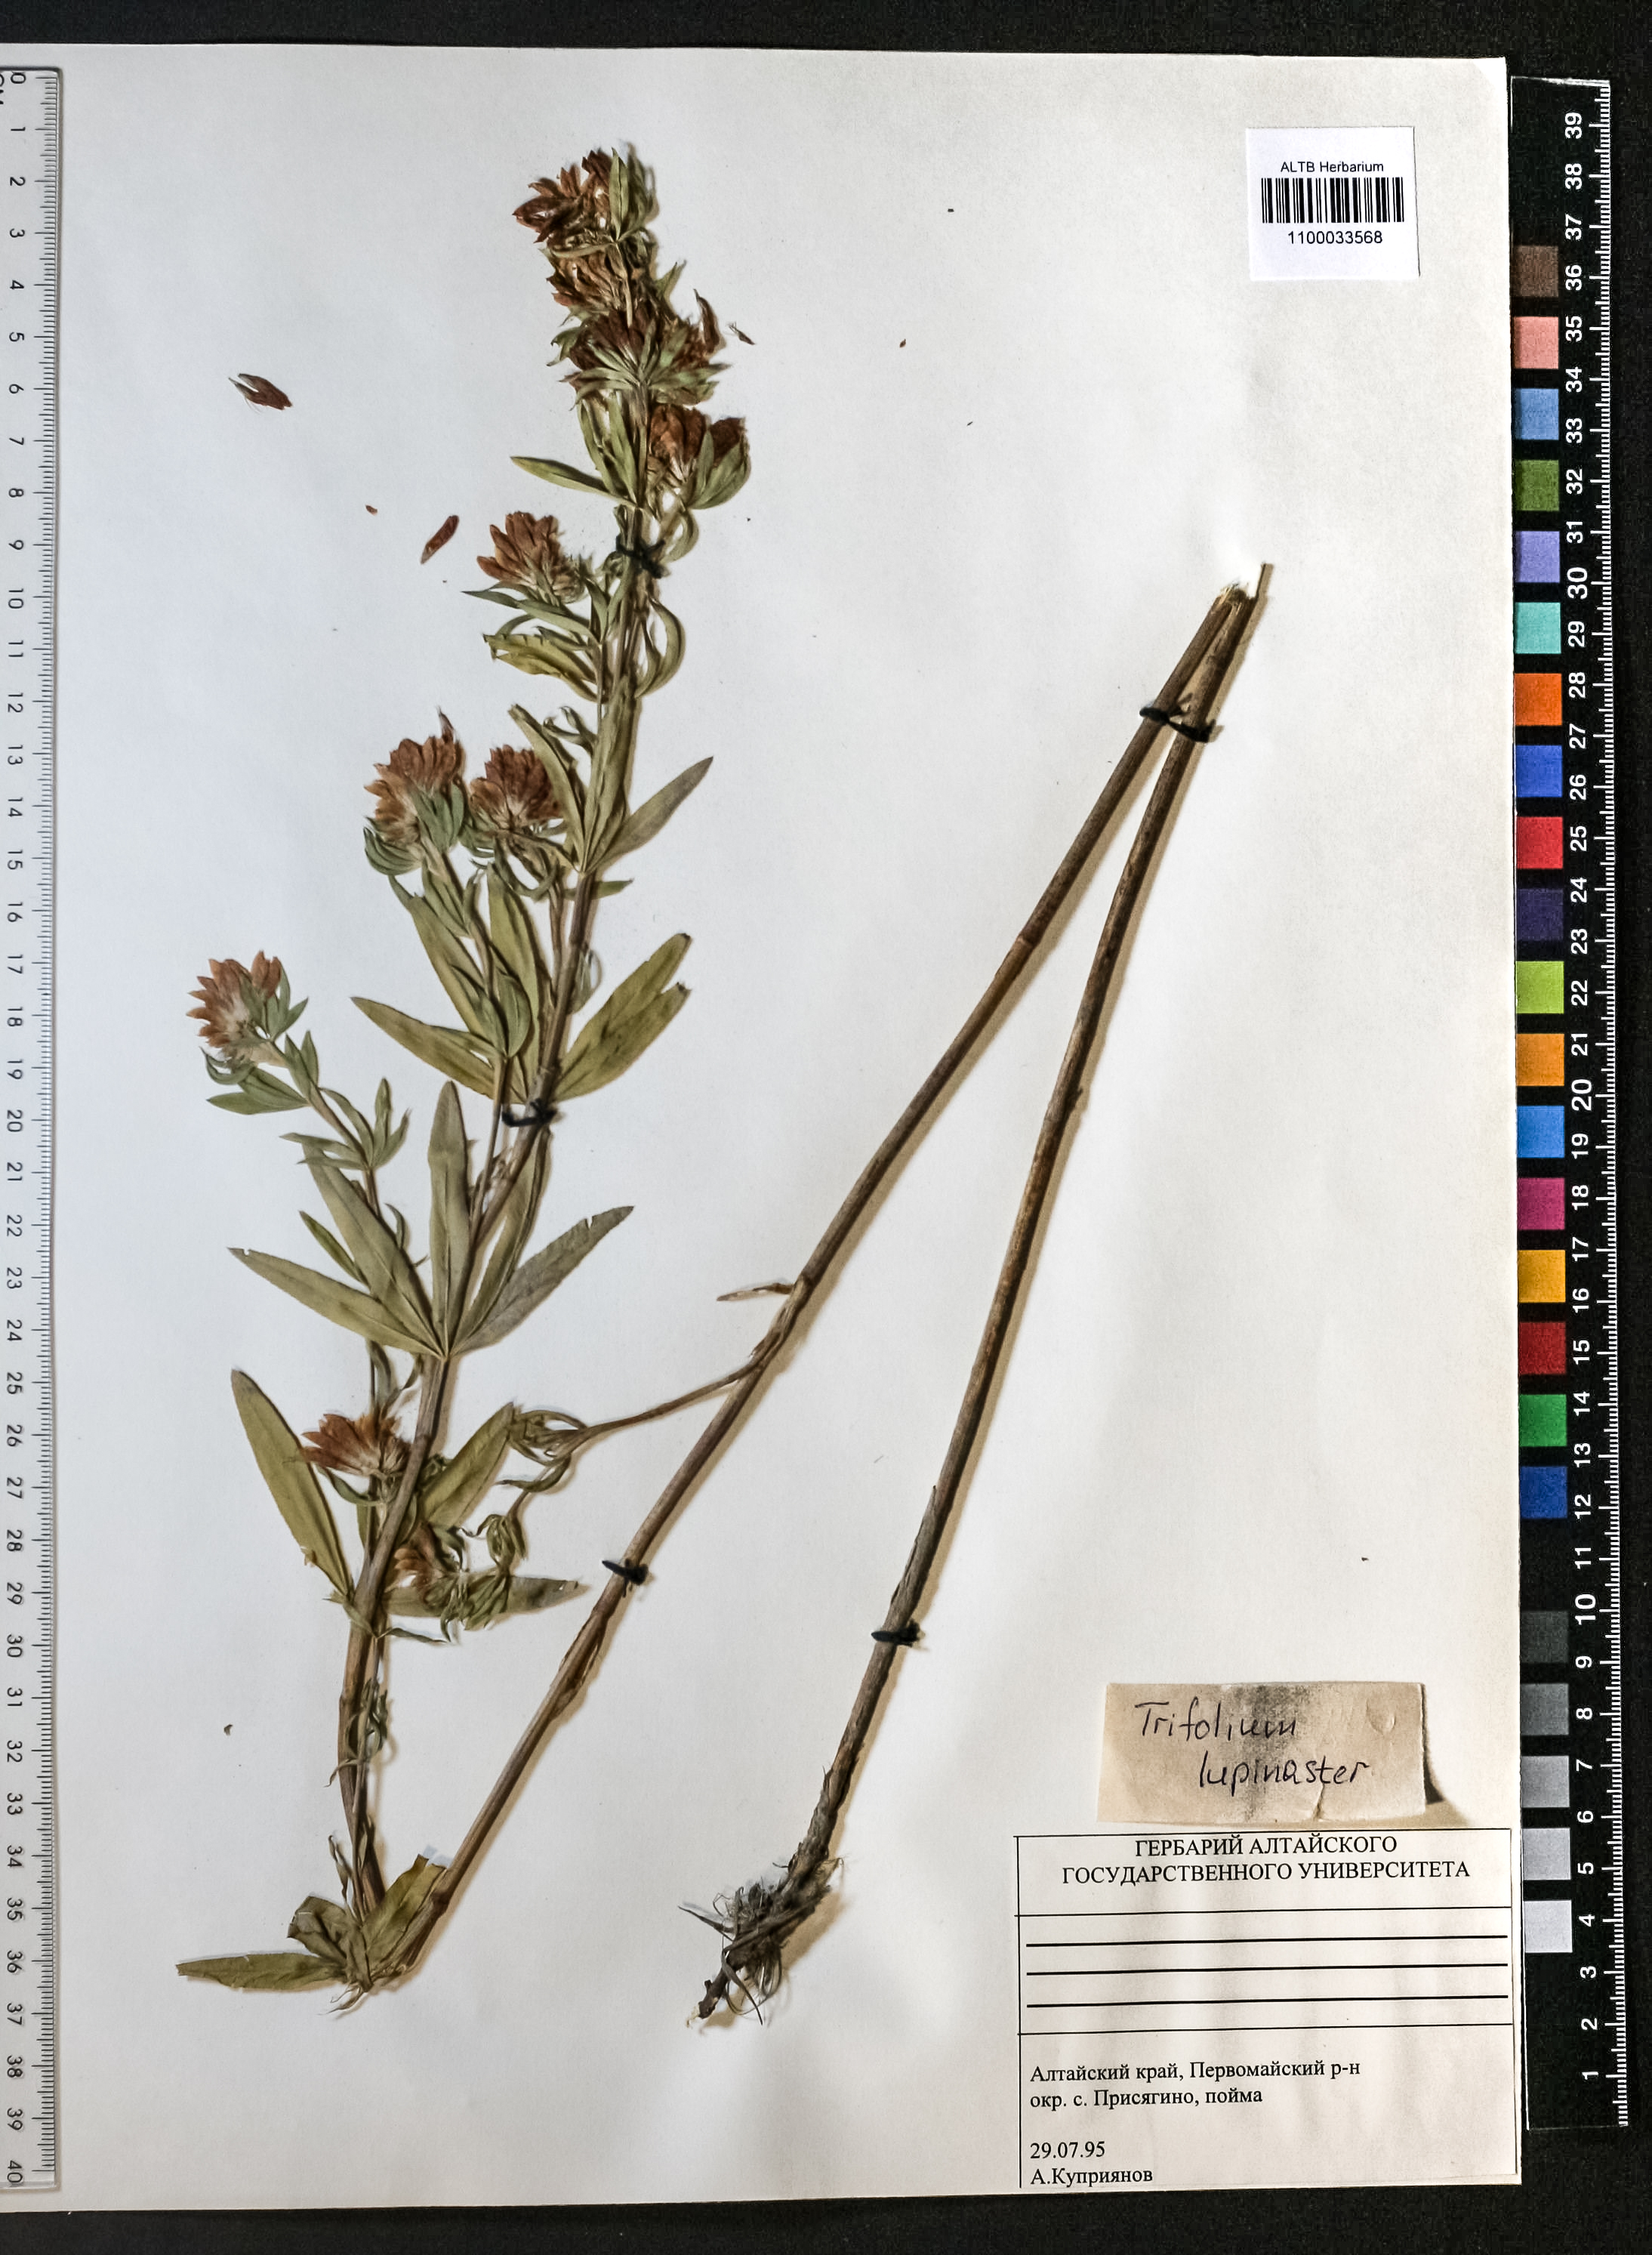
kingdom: Plantae
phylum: Tracheophyta
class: Magnoliopsida
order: Fabales
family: Fabaceae
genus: Trifolium
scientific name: Trifolium lupinaster
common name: Lupine clover
